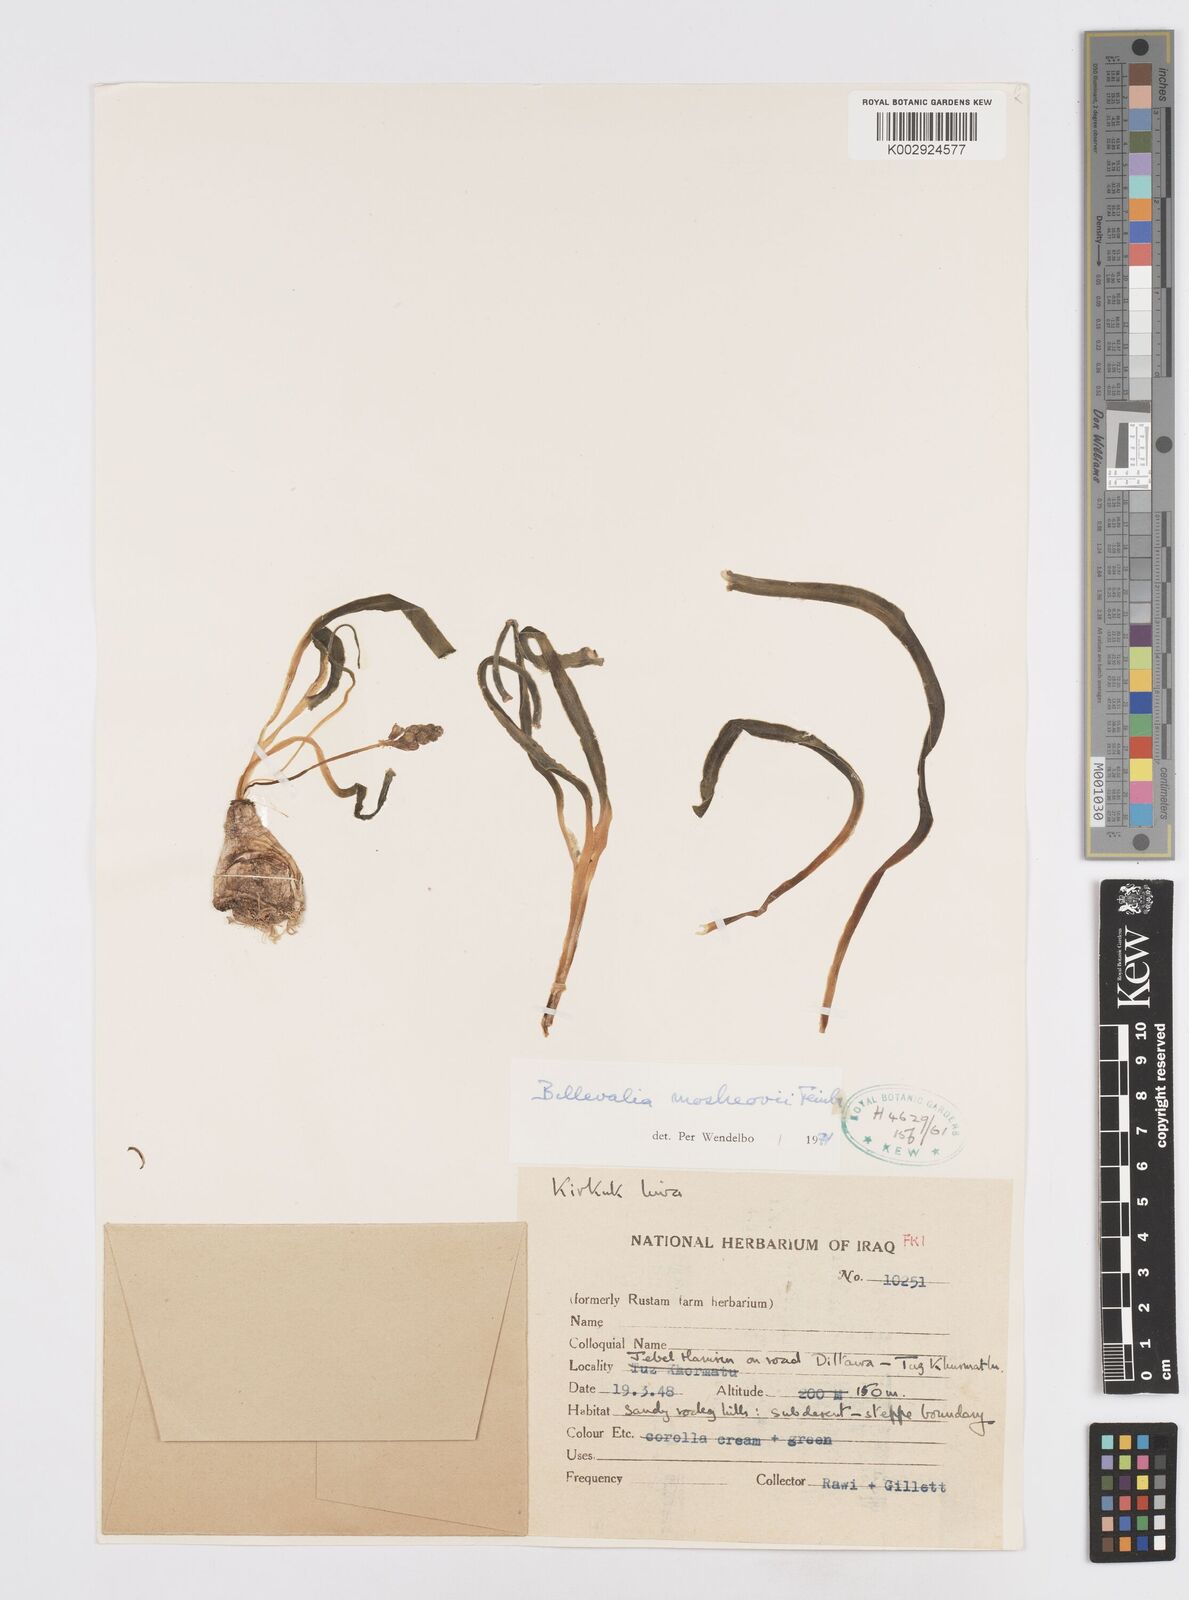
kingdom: Plantae
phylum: Tracheophyta
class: Liliopsida
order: Asparagales
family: Asparagaceae
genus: Bellevalia
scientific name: Bellevalia mosheovii
